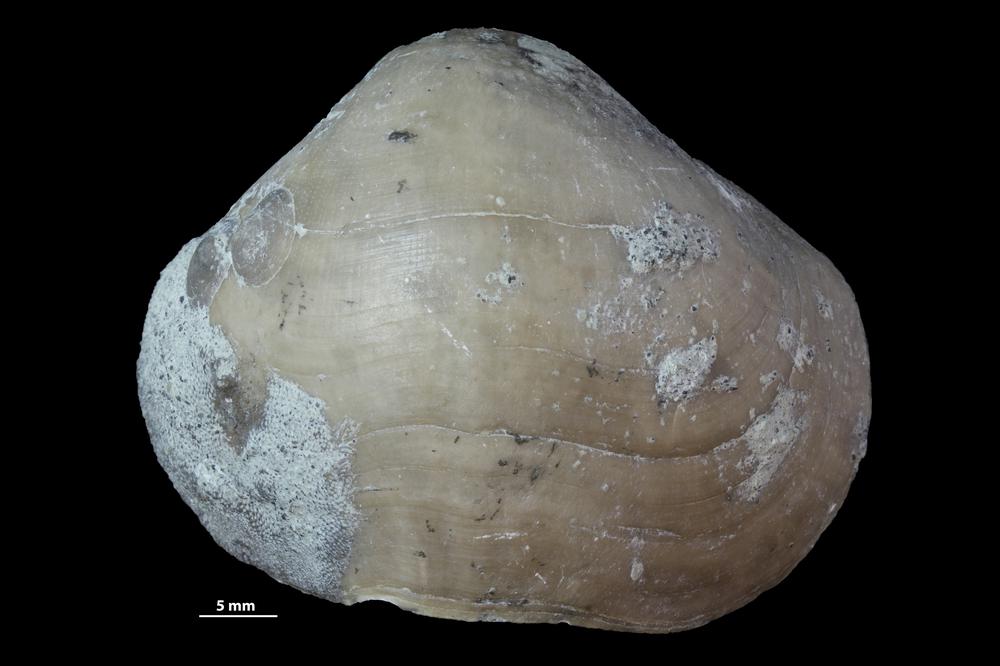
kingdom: Animalia
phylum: Brachiopoda
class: Rhynchonellata
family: Porambonitidae
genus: Porambonites
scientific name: Porambonites
